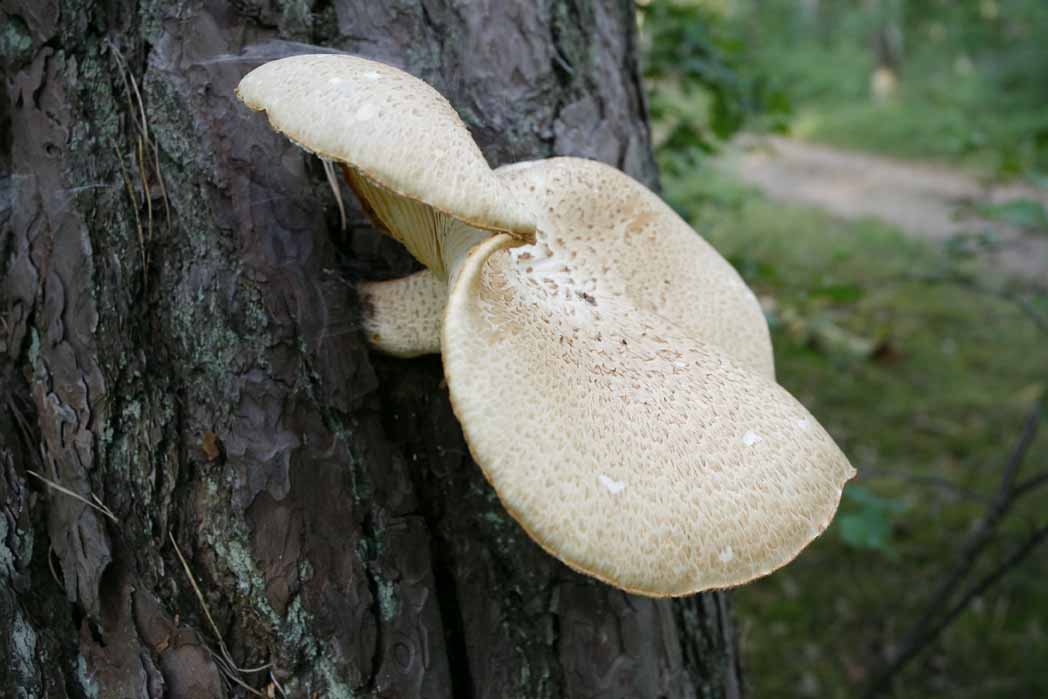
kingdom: Fungi
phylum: Basidiomycota
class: Agaricomycetes
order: Gloeophyllales
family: Gloeophyllaceae
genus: Neolentinus
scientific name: Neolentinus lepideus
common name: skællet sejhat
